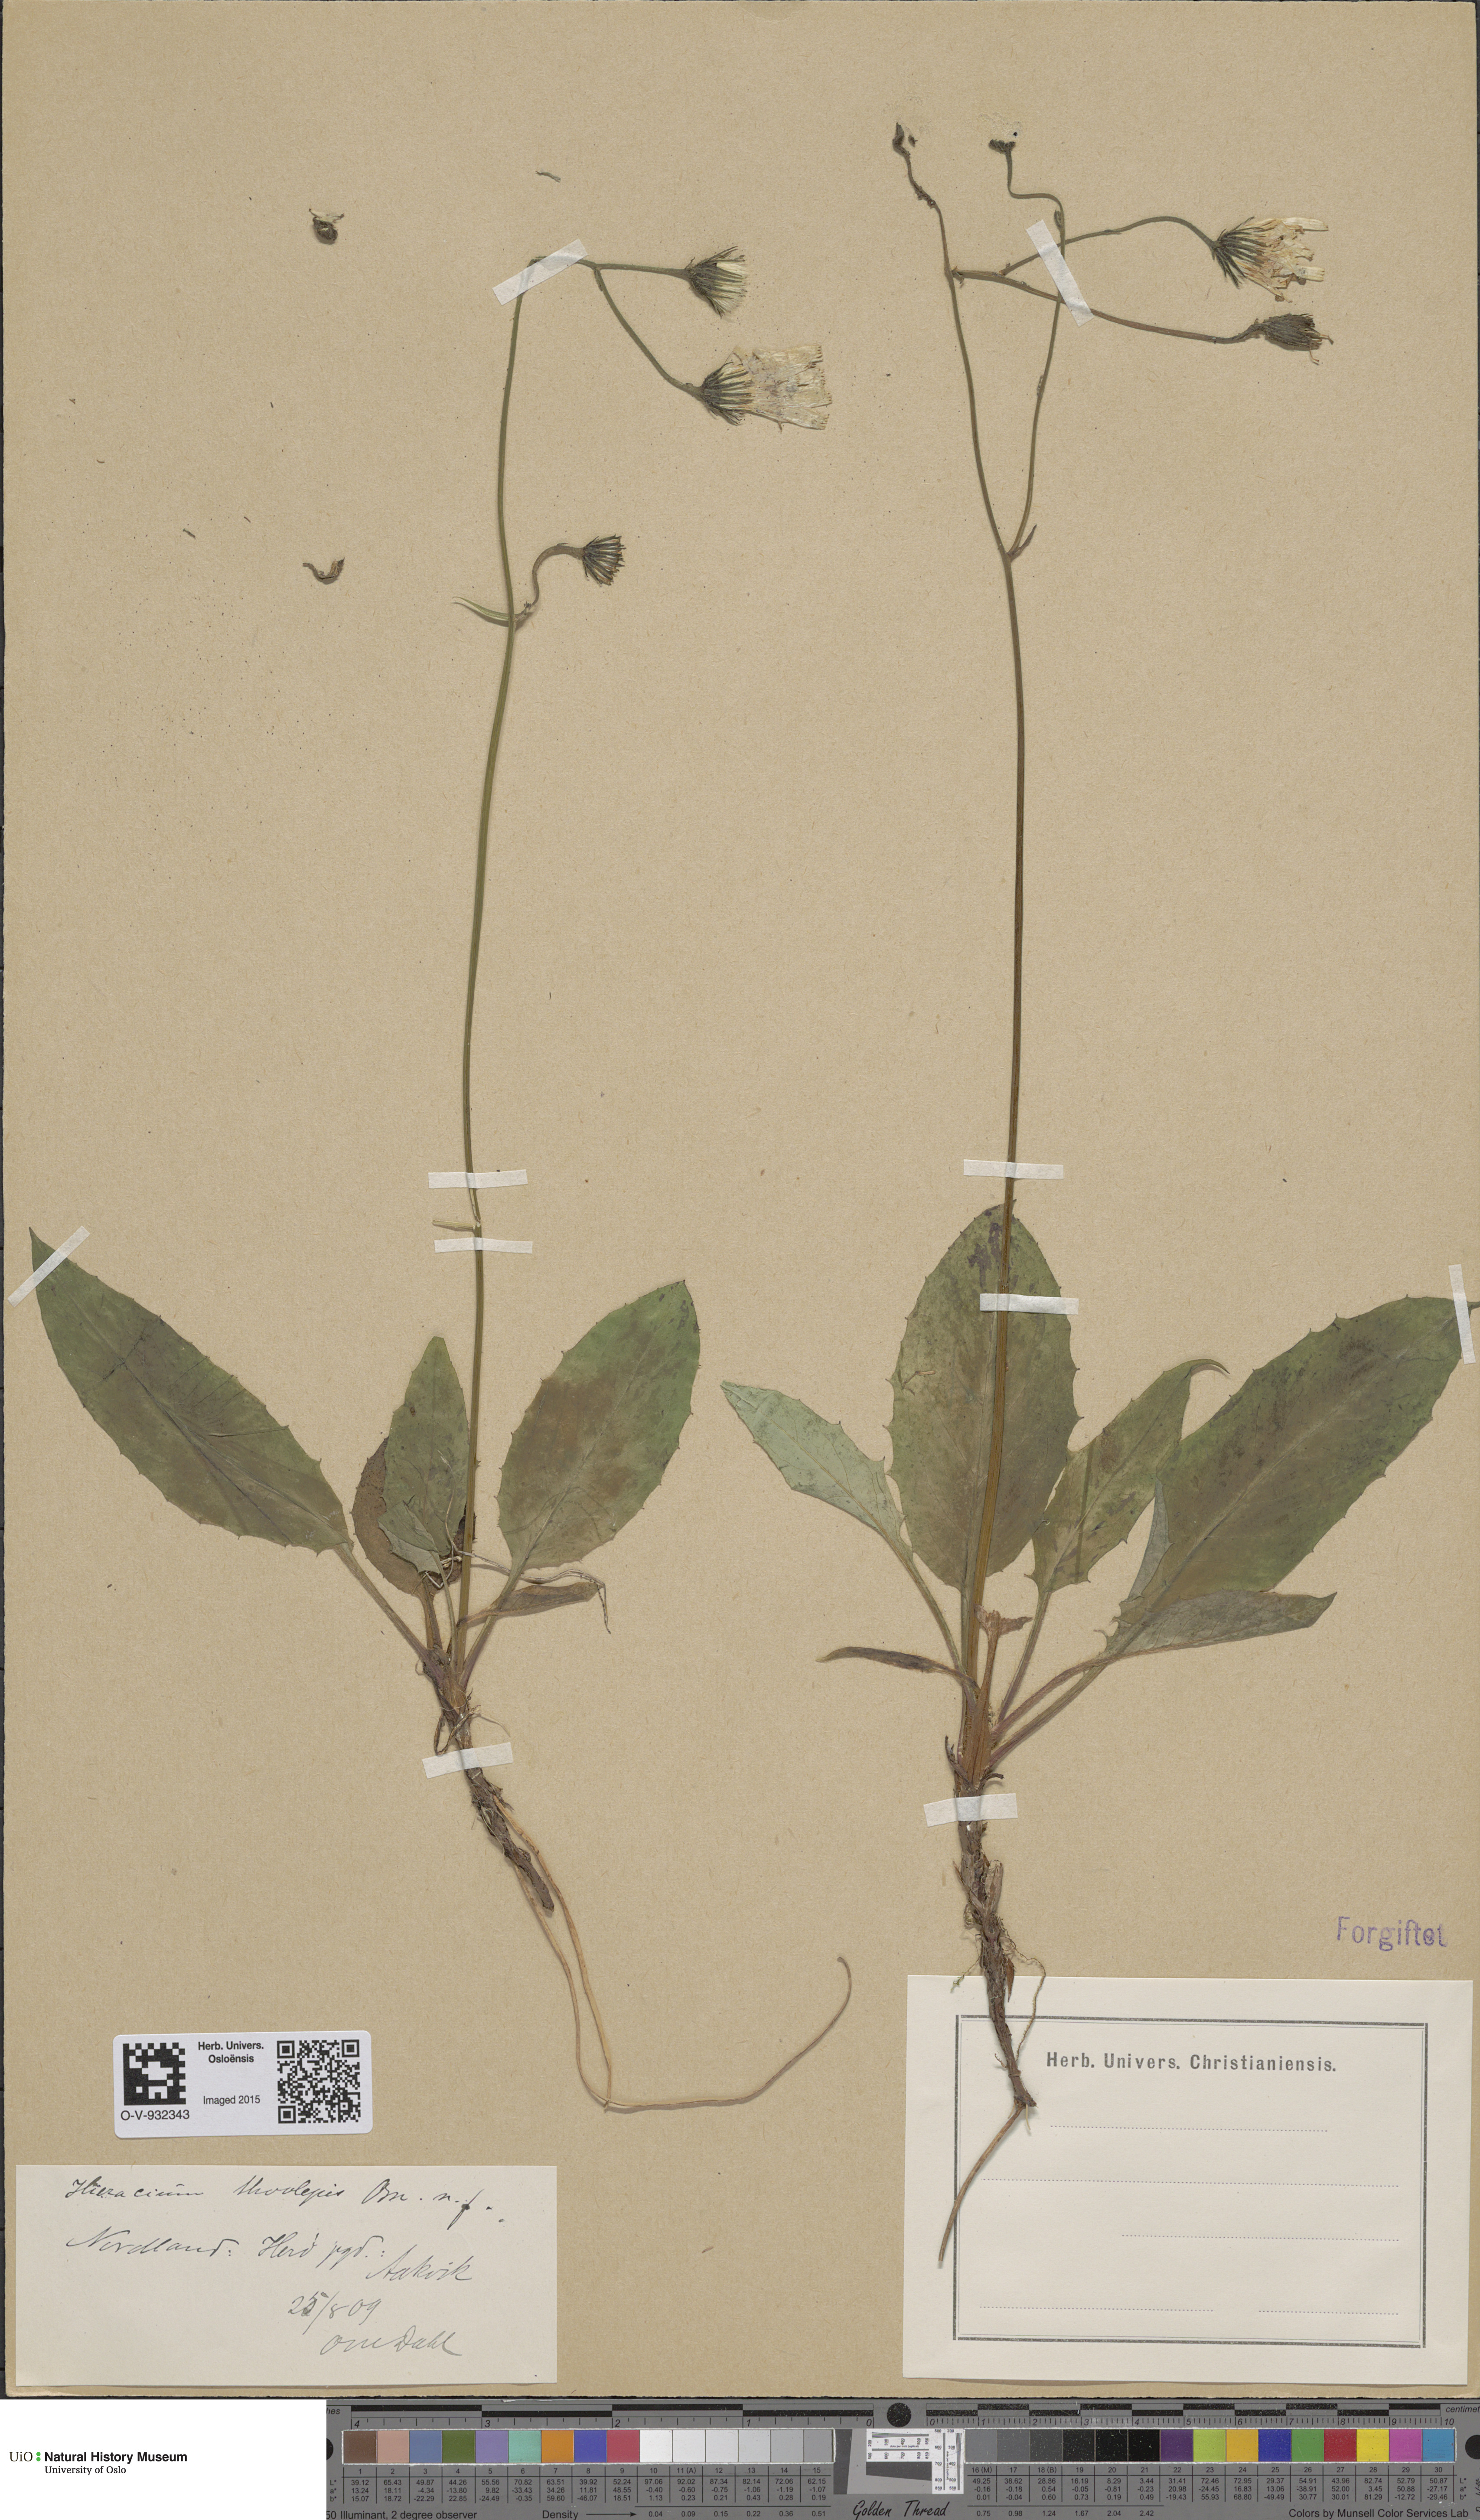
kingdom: Plantae
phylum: Tracheophyta
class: Magnoliopsida
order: Asterales
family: Asteraceae
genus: Hieracium
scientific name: Hieracium sommerfeltii
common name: Sommerfelt's hawkweed
